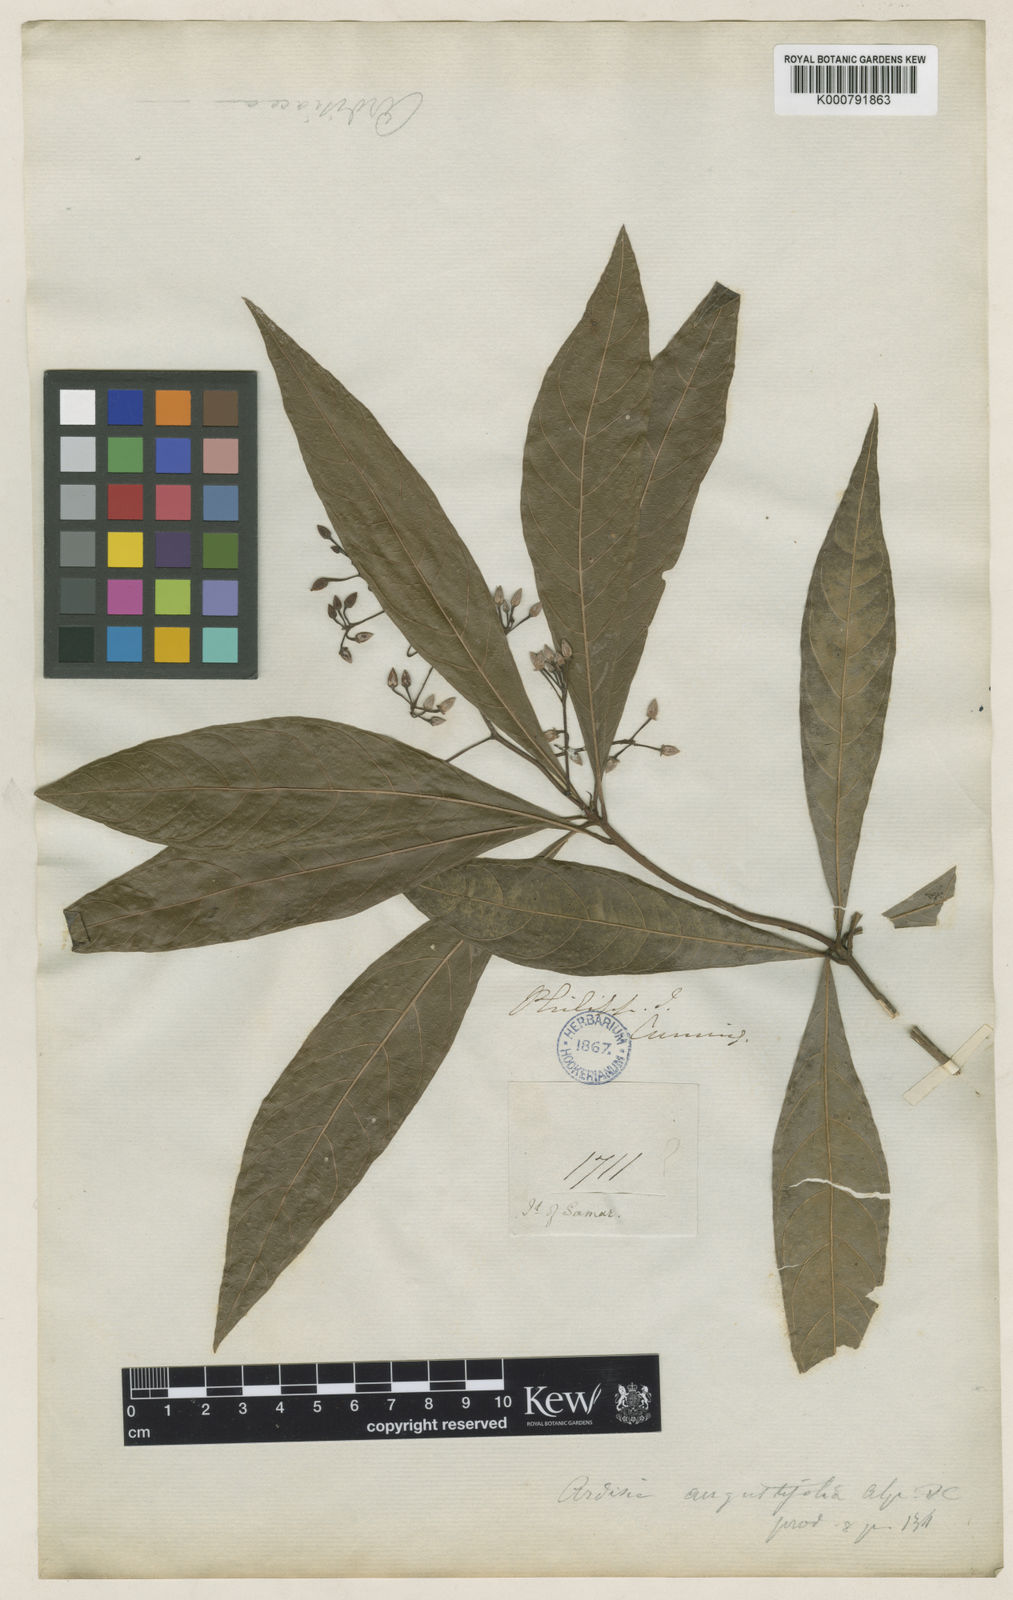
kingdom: Plantae
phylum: Tracheophyta
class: Magnoliopsida
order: Ericales
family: Primulaceae
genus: Ardisia
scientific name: Ardisia serrata
